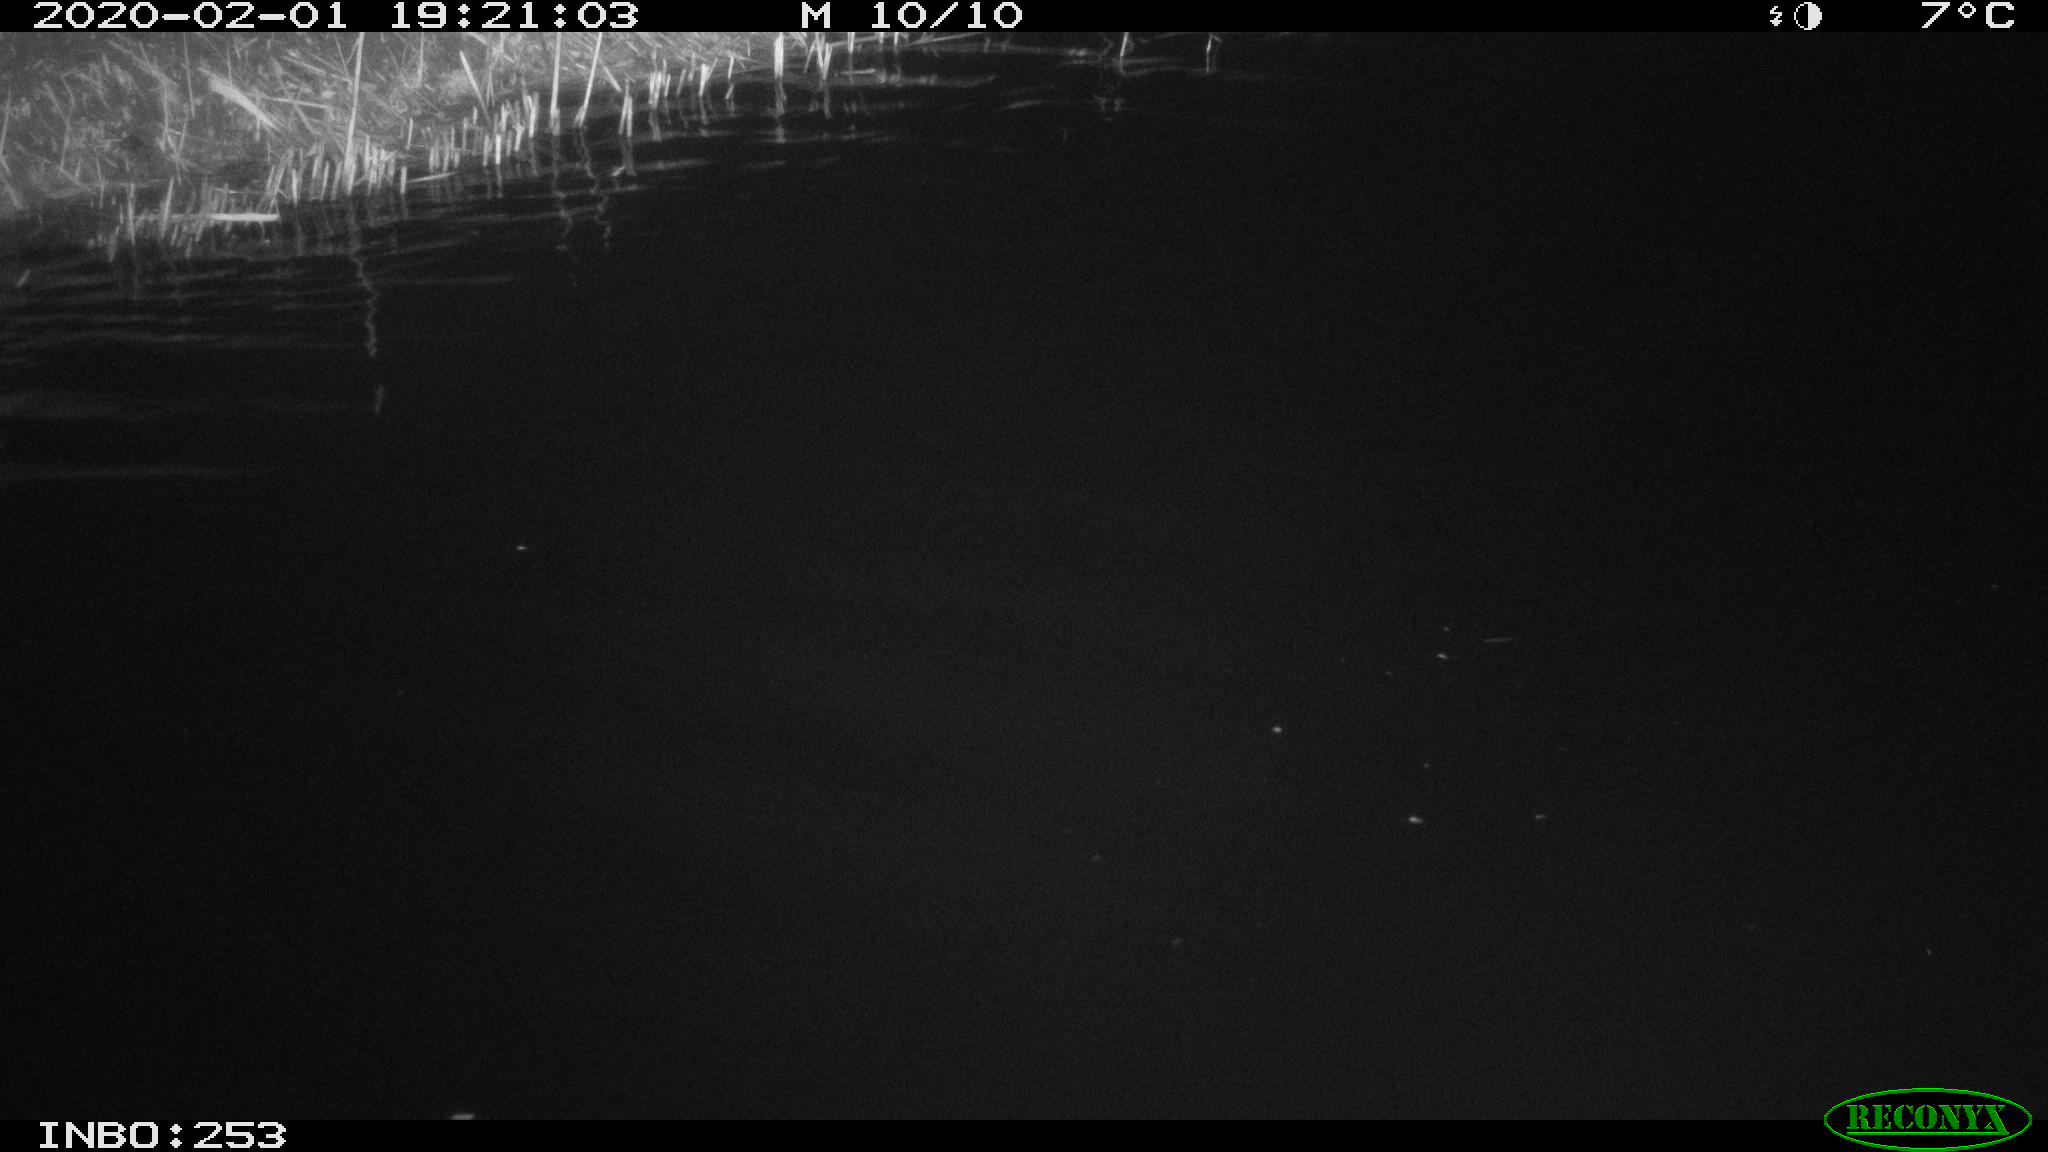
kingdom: Animalia
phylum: Chordata
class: Mammalia
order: Rodentia
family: Cricetidae
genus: Ondatra
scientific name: Ondatra zibethicus
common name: Muskrat
